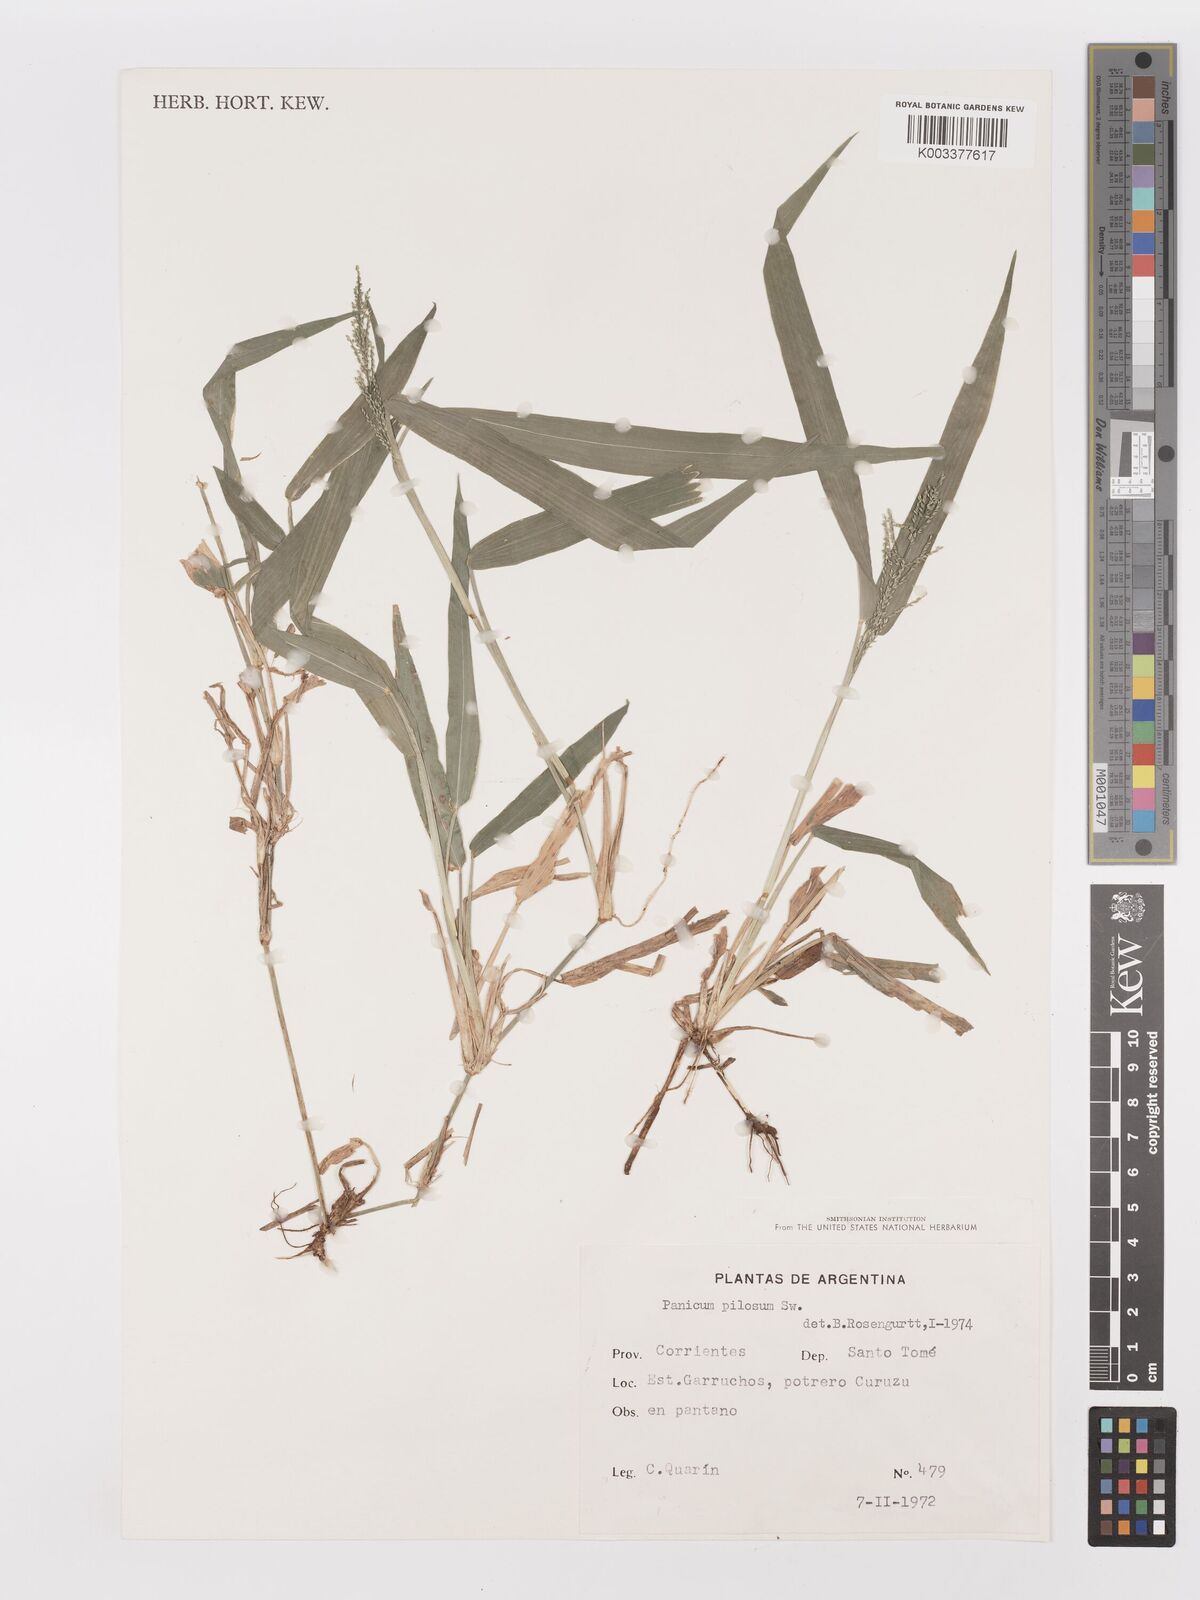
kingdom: Plantae
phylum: Tracheophyta
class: Liliopsida
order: Poales
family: Poaceae
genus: Panicum
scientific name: Panicum
